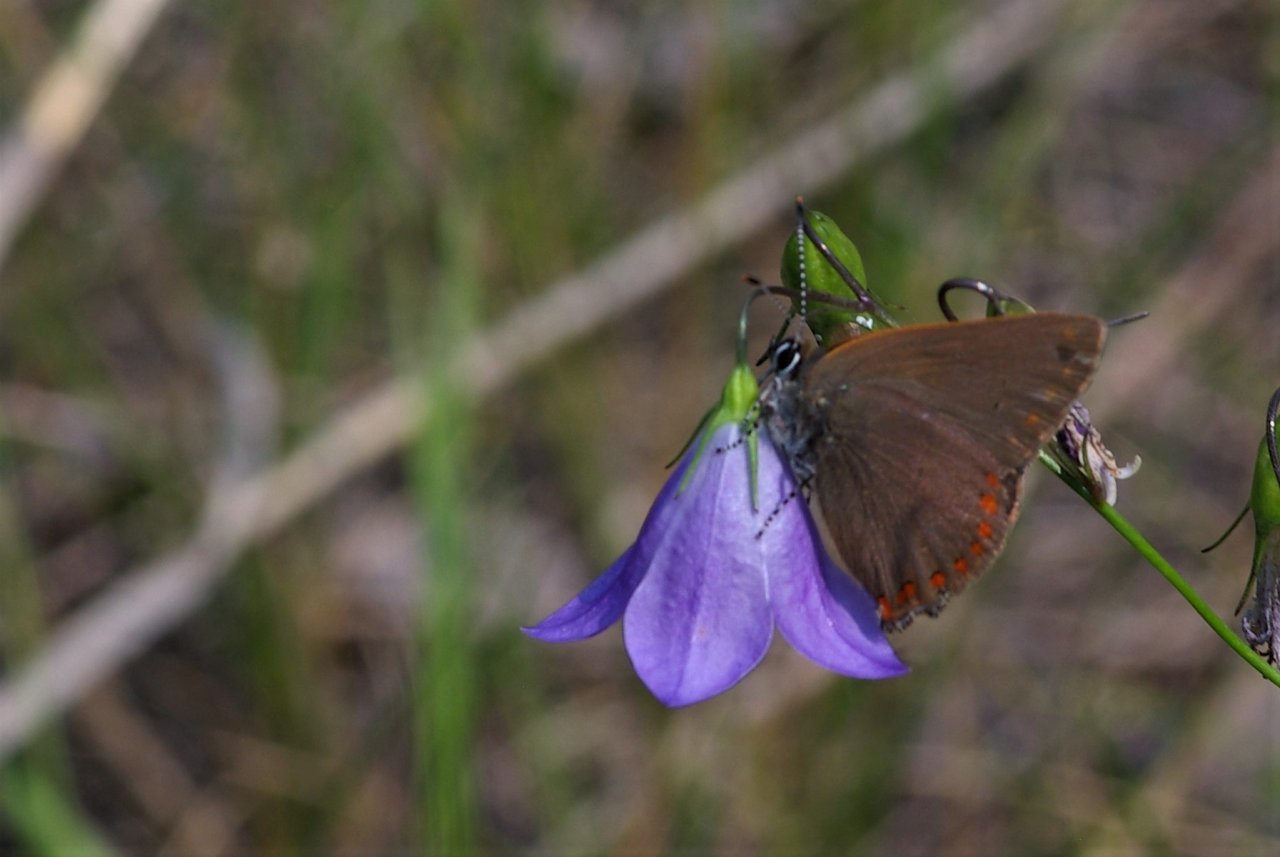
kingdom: Animalia
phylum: Arthropoda
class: Insecta
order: Lepidoptera
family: Lycaenidae
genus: Harkenclenus
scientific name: Harkenclenus titus
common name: Coral Hairstreak
